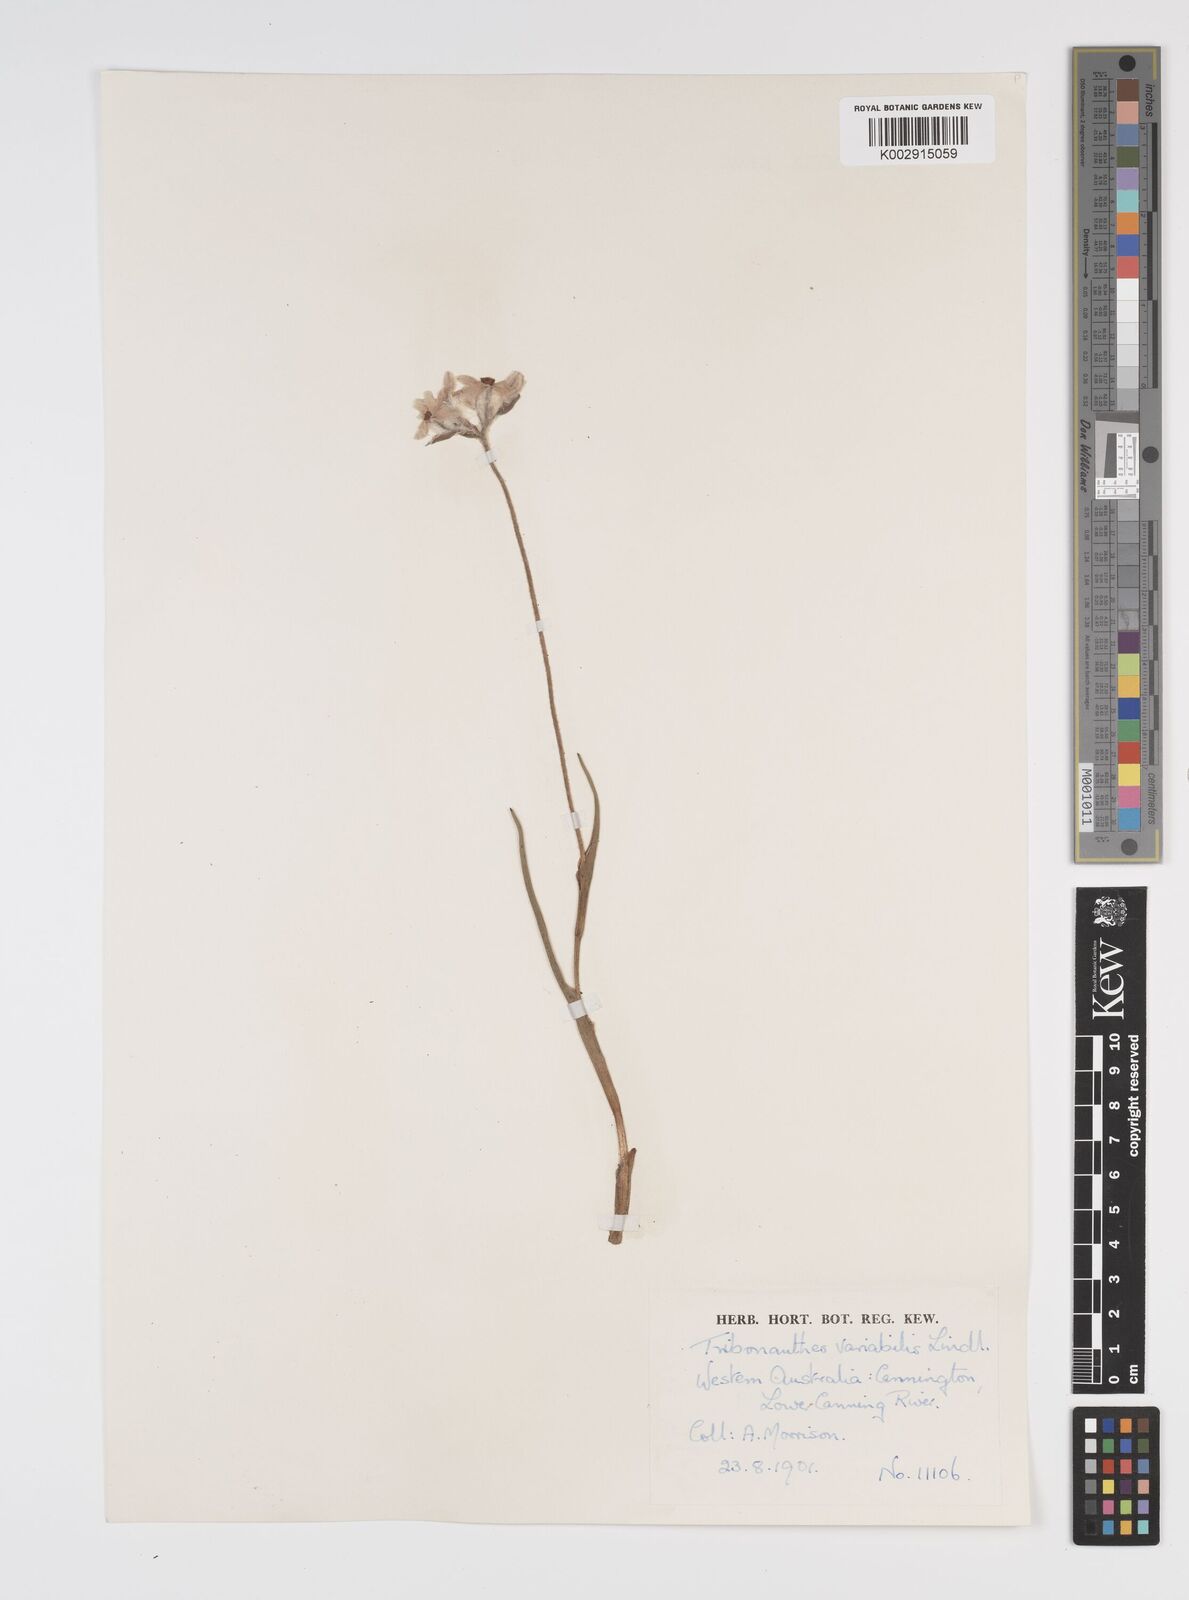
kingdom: Plantae
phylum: Tracheophyta
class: Liliopsida
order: Commelinales
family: Haemodoraceae
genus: Tribonanthes
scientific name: Tribonanthes australis
